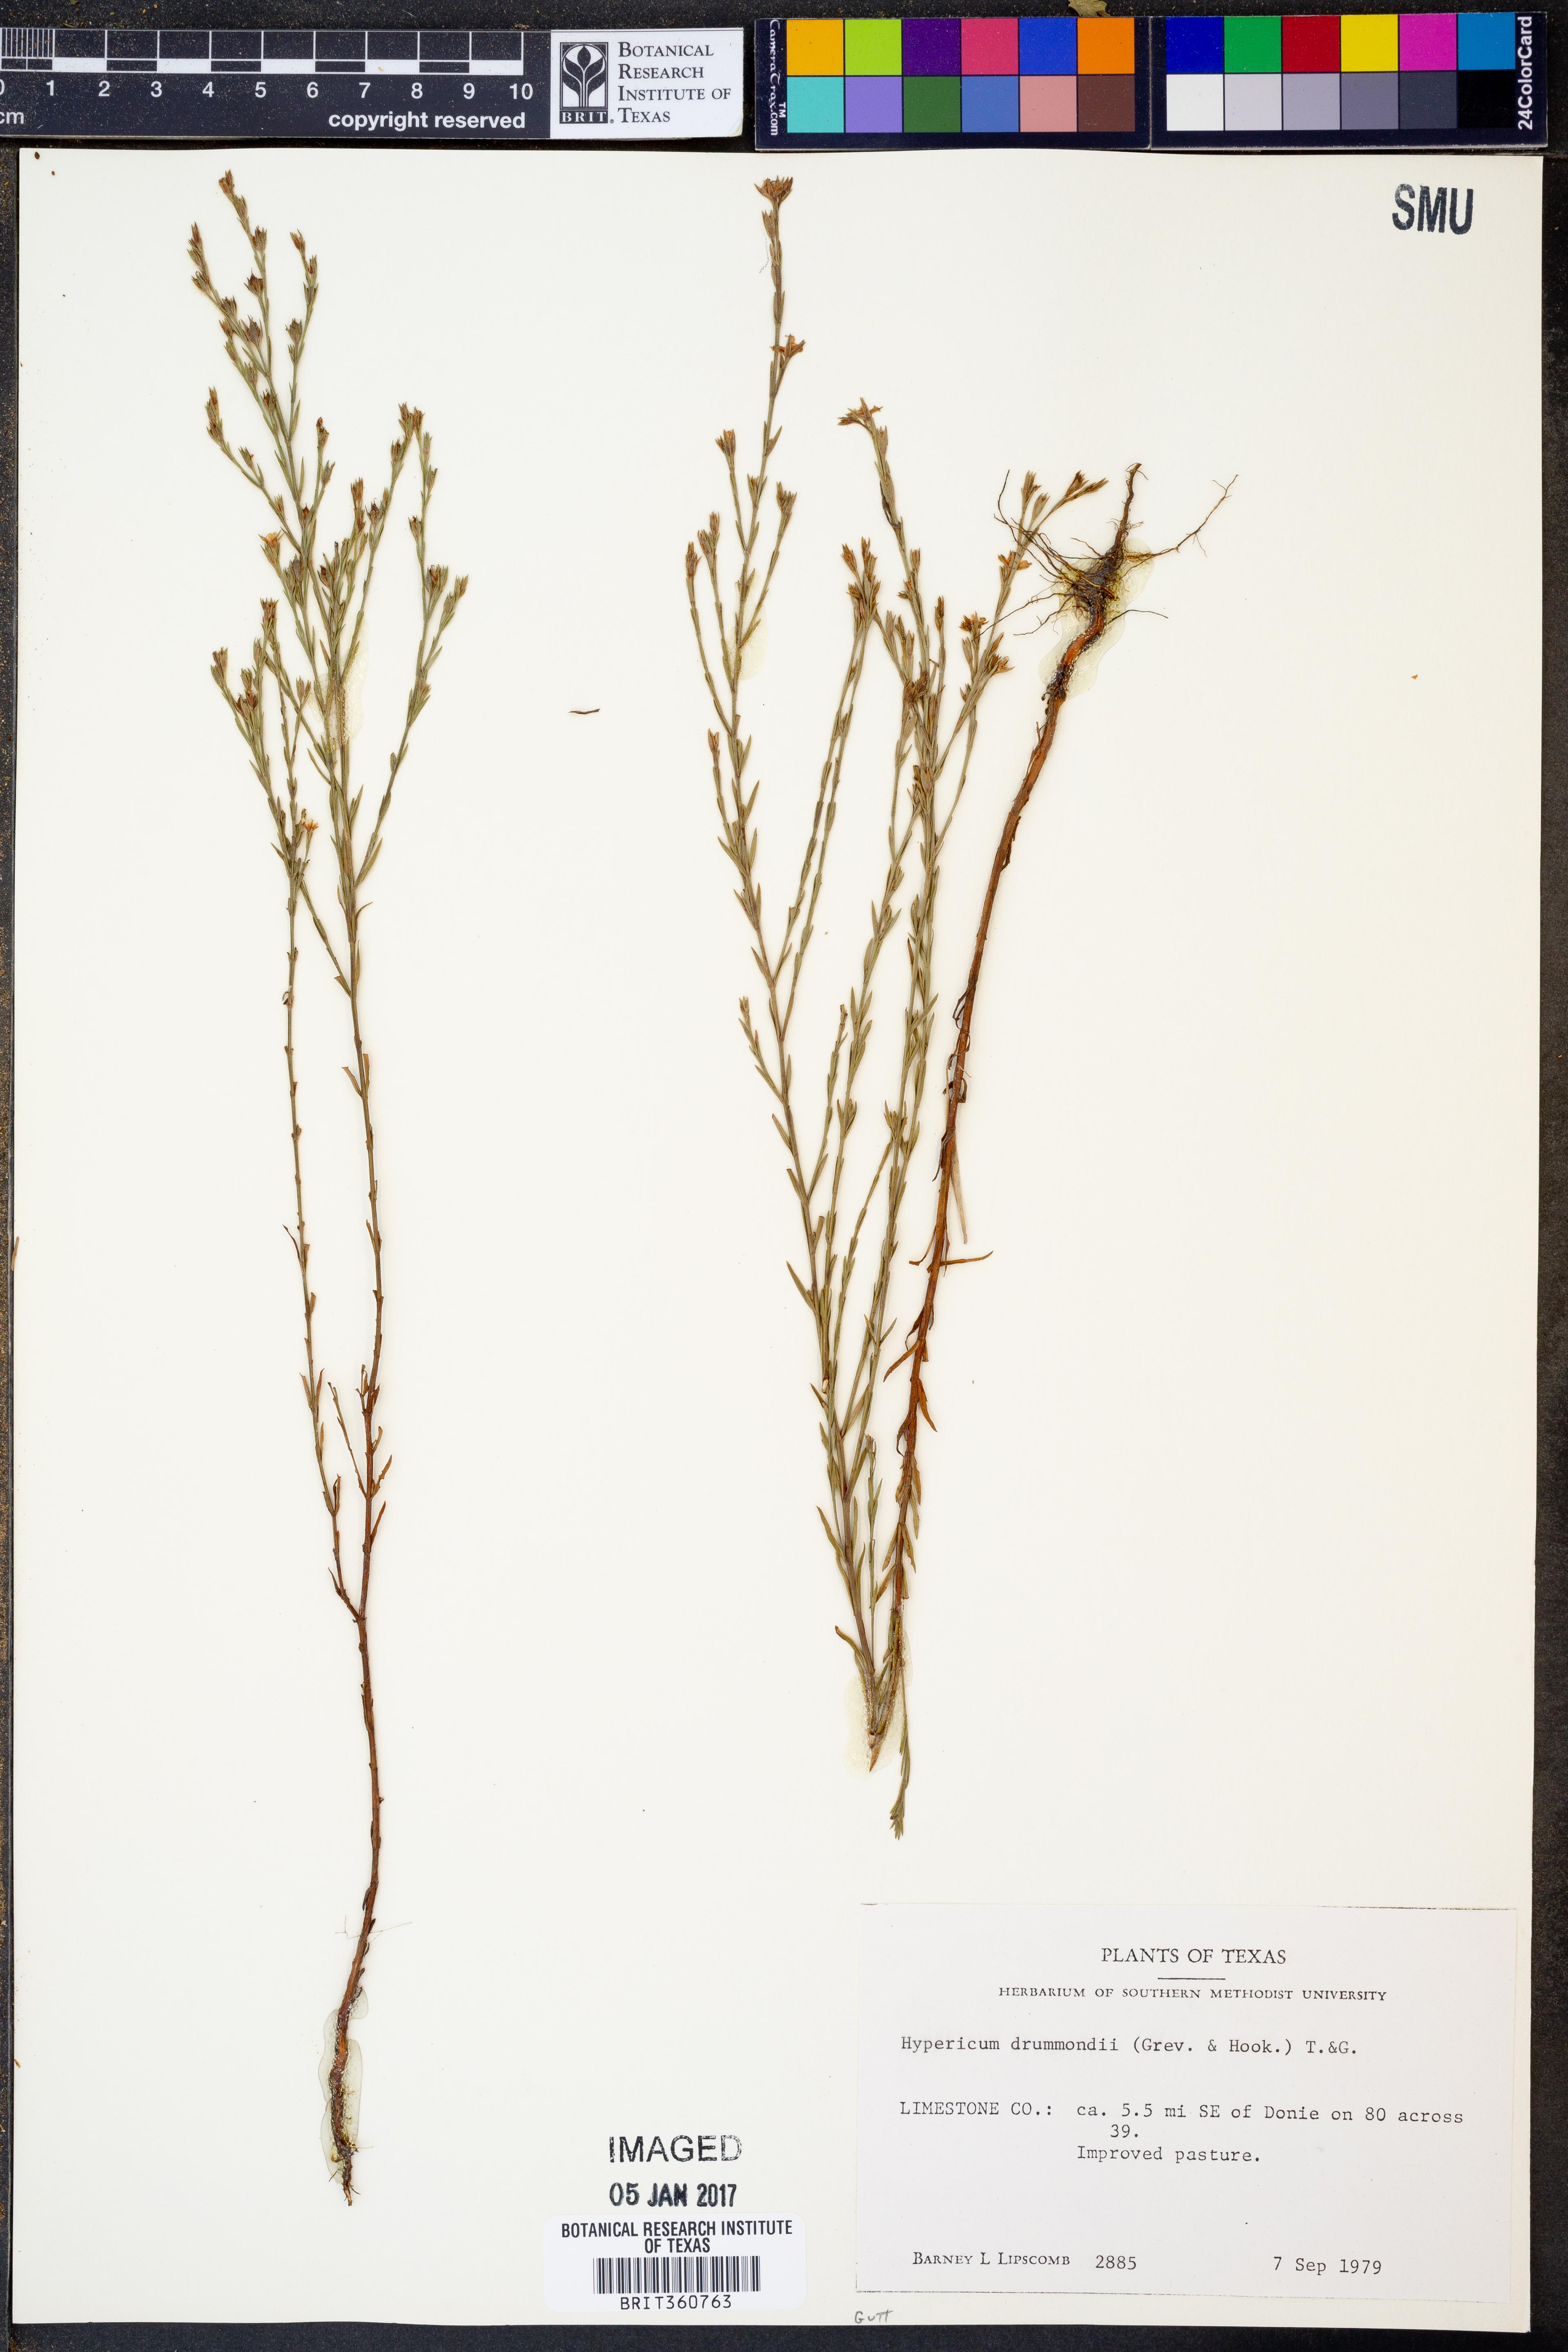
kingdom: Plantae
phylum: Tracheophyta
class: Magnoliopsida
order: Malpighiales
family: Hypericaceae
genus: Hypericum
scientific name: Hypericum drummondii
